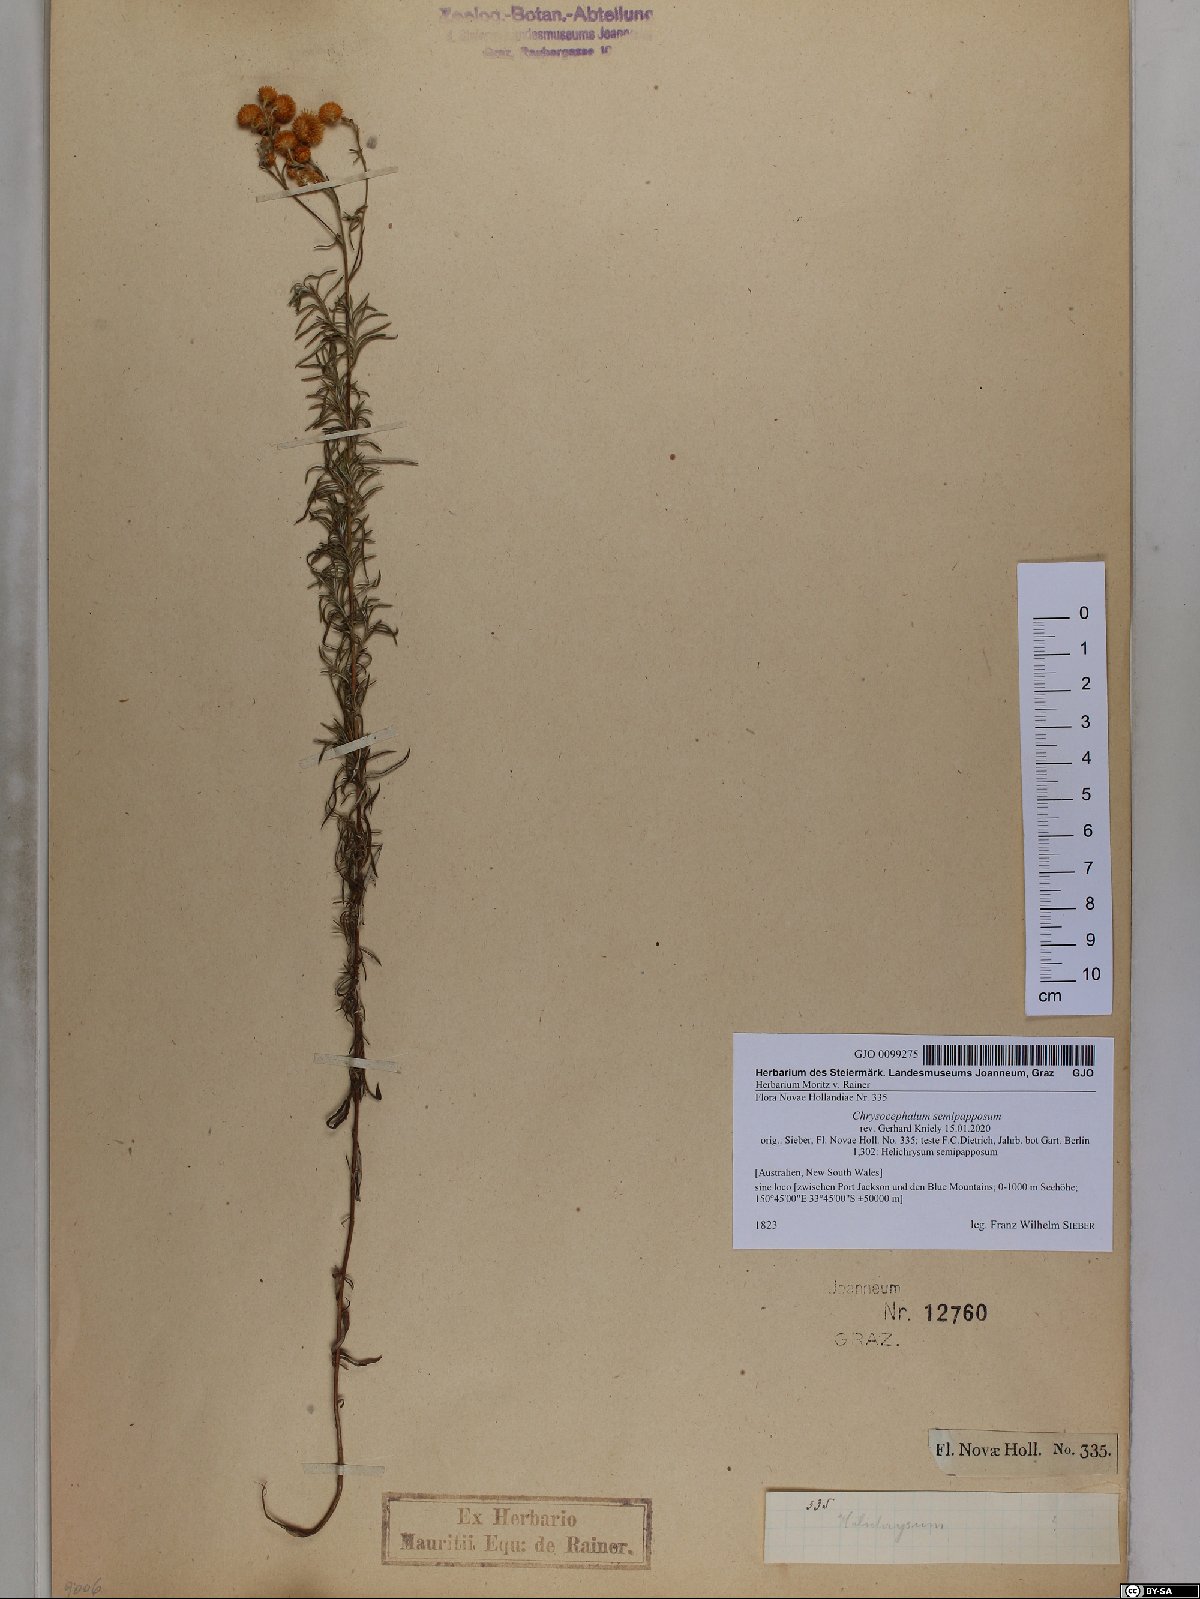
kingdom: Plantae
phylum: Tracheophyta
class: Magnoliopsida
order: Asterales
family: Asteraceae
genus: Chrysocephalum
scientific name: Chrysocephalum semipapposum
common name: Clustered everlasting
